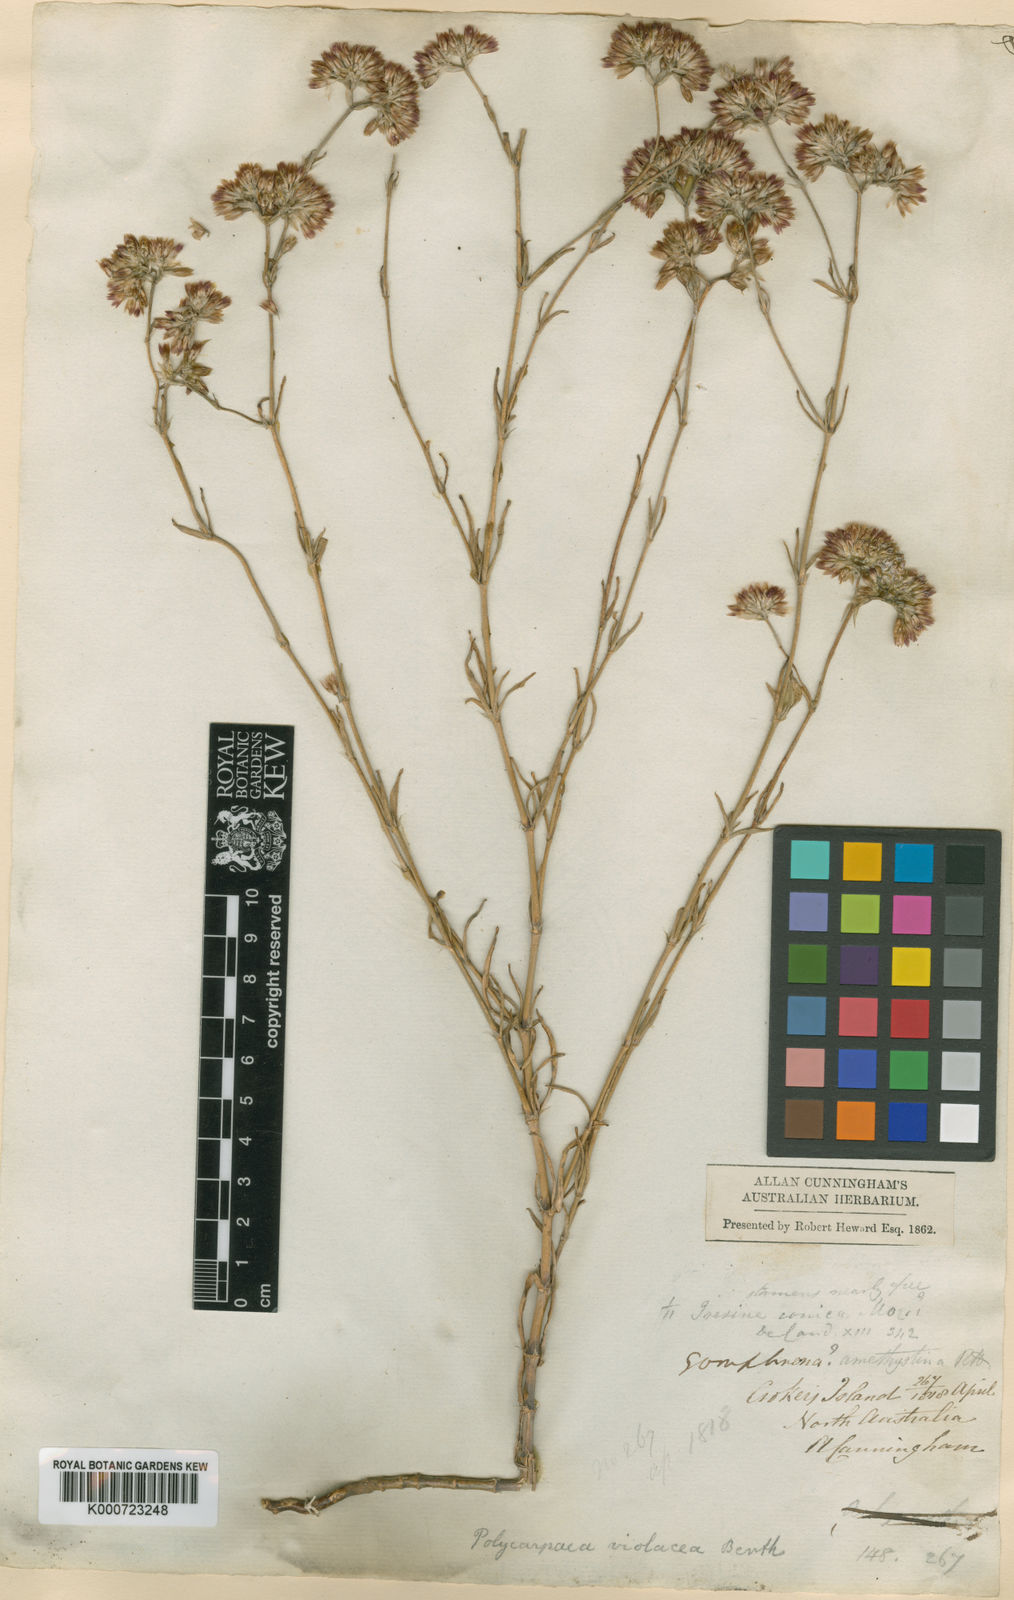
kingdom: Plantae
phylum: Tracheophyta
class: Magnoliopsida
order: Caryophyllales
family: Caryophyllaceae
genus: Polycarpaea
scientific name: Polycarpaea violacea
